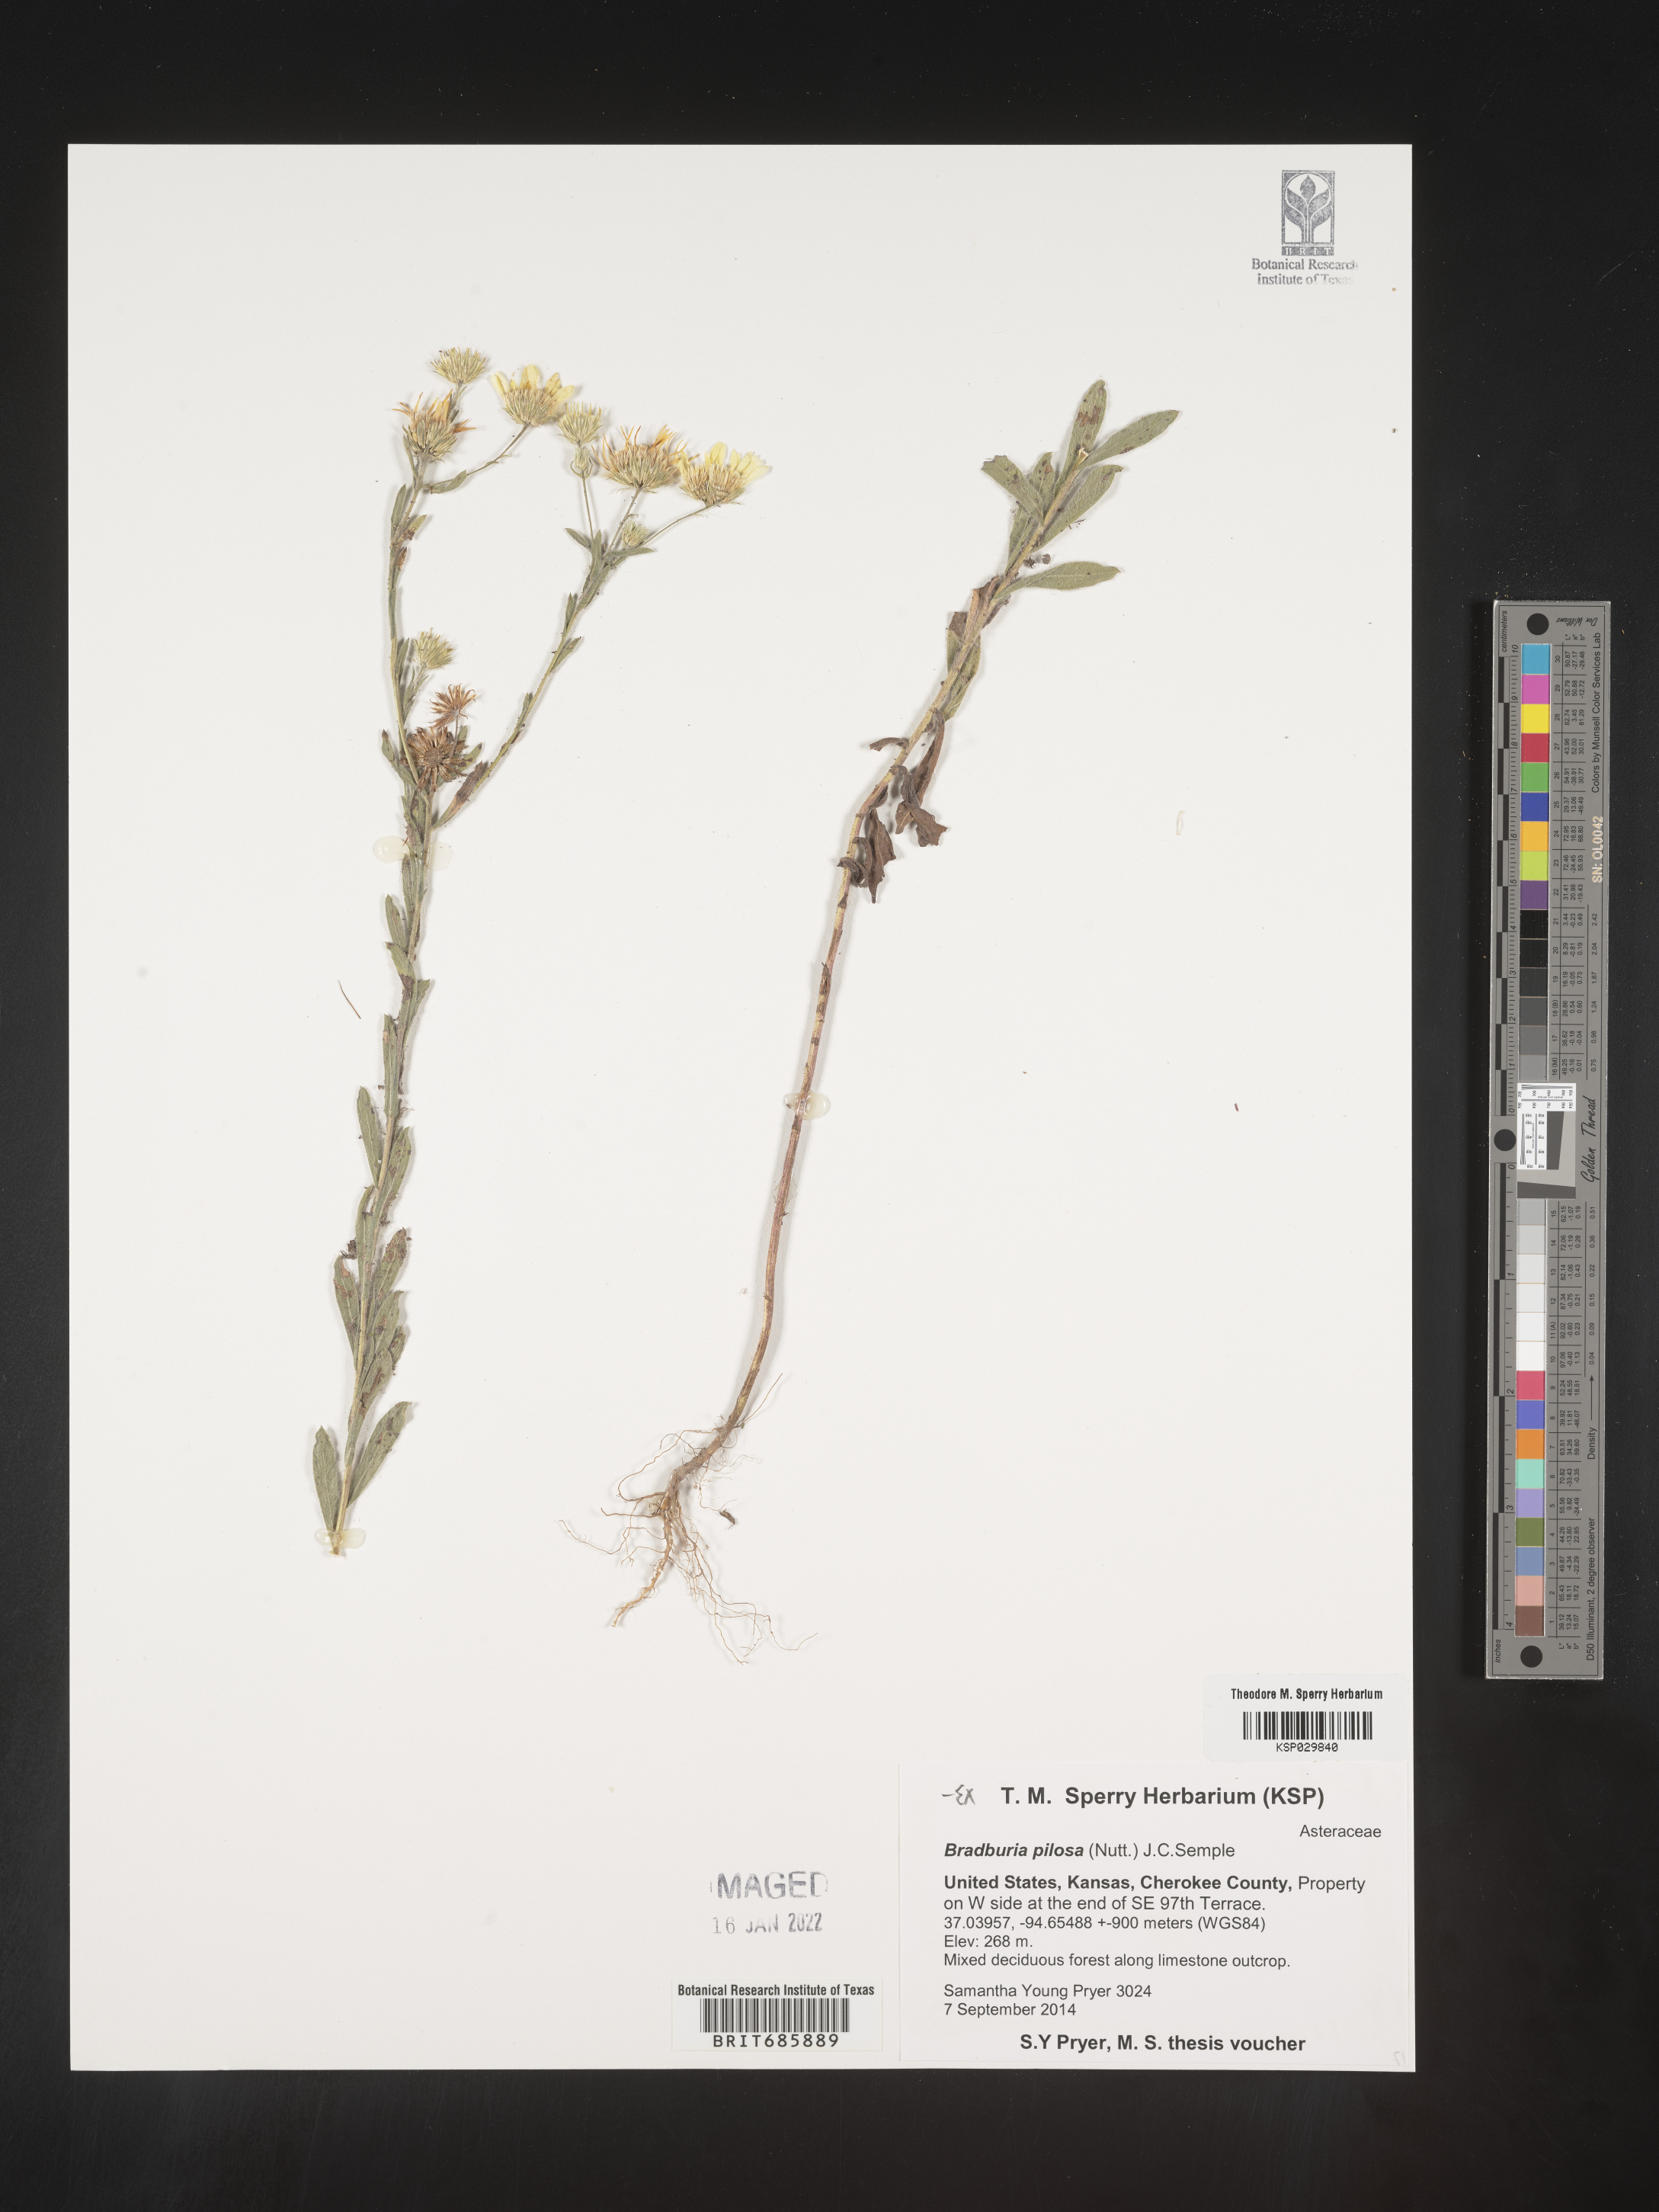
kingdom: Plantae
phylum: Tracheophyta
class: Magnoliopsida
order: Asterales
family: Asteraceae
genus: Bradburia
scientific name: Bradburia
